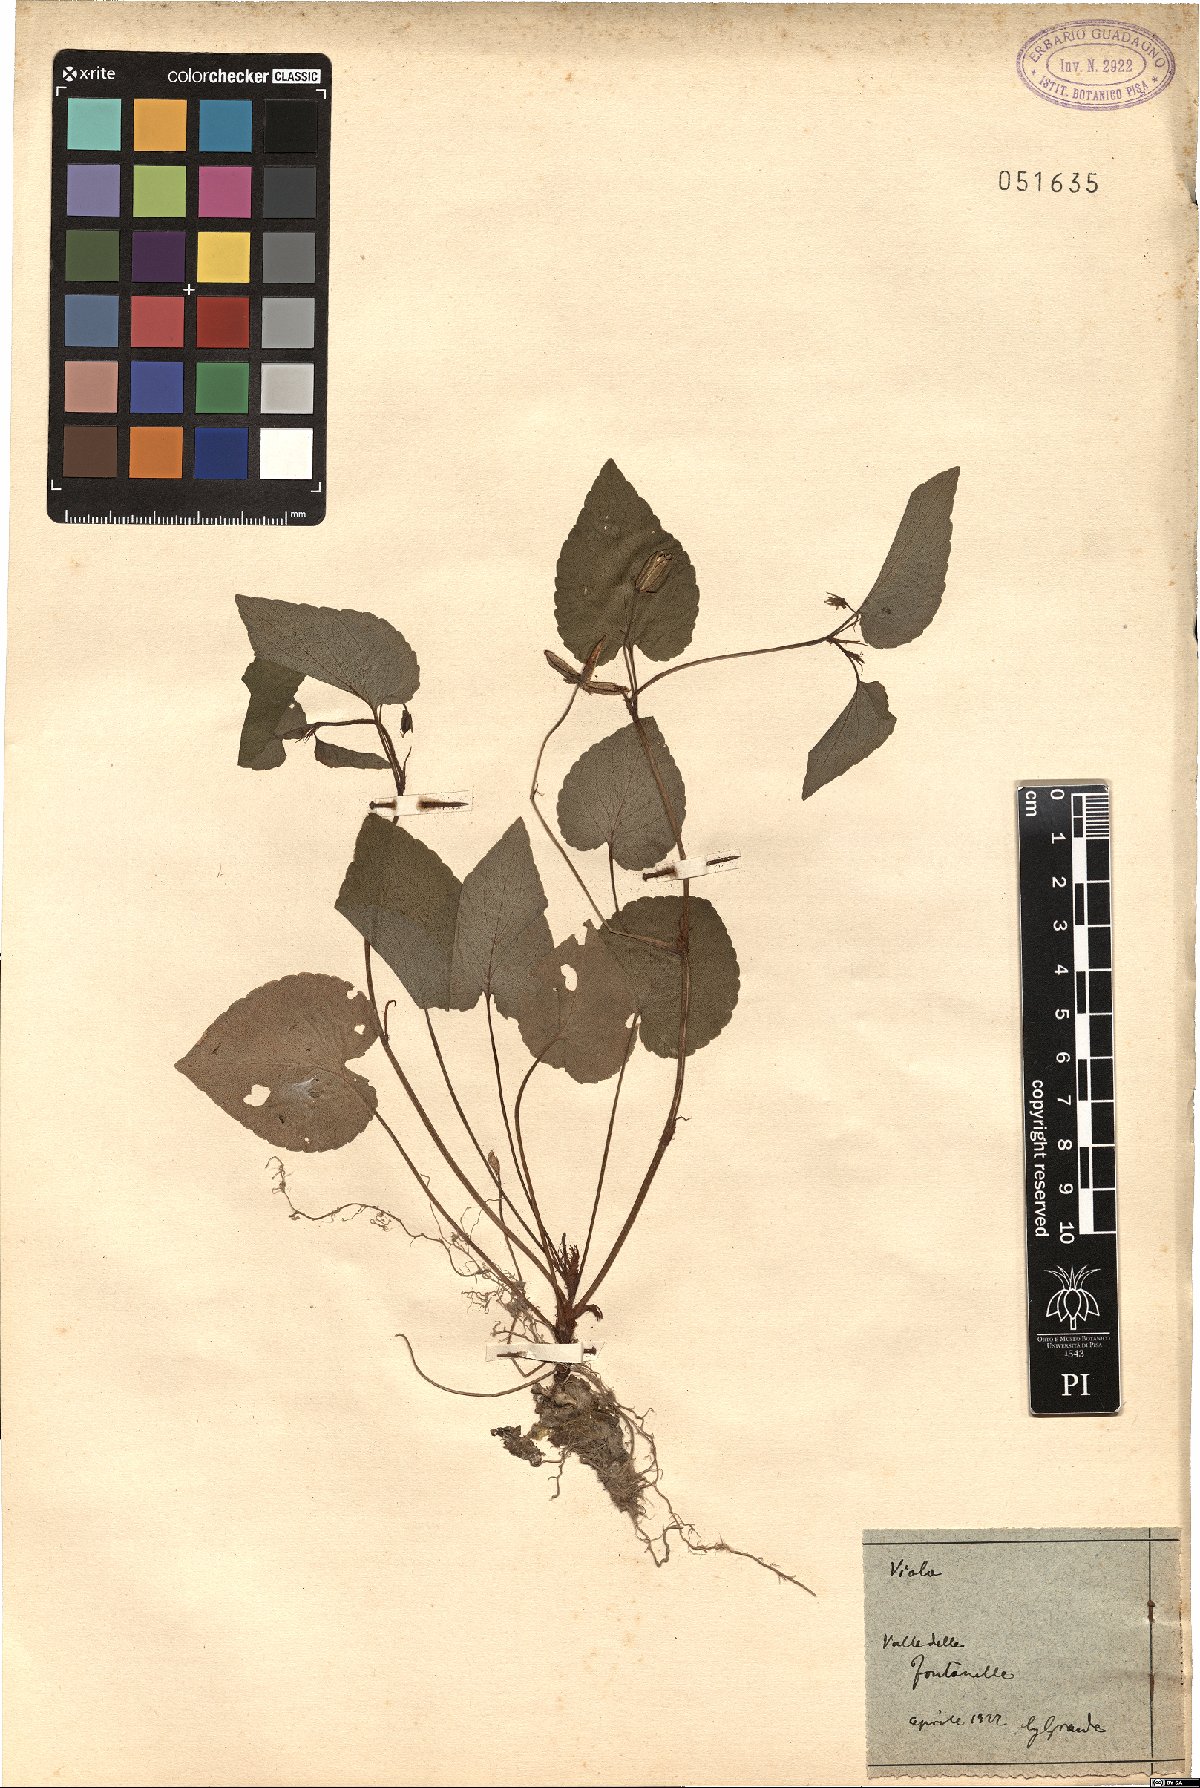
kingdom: Plantae
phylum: Tracheophyta
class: Magnoliopsida
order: Malpighiales
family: Violaceae
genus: Viola
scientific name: Viola
